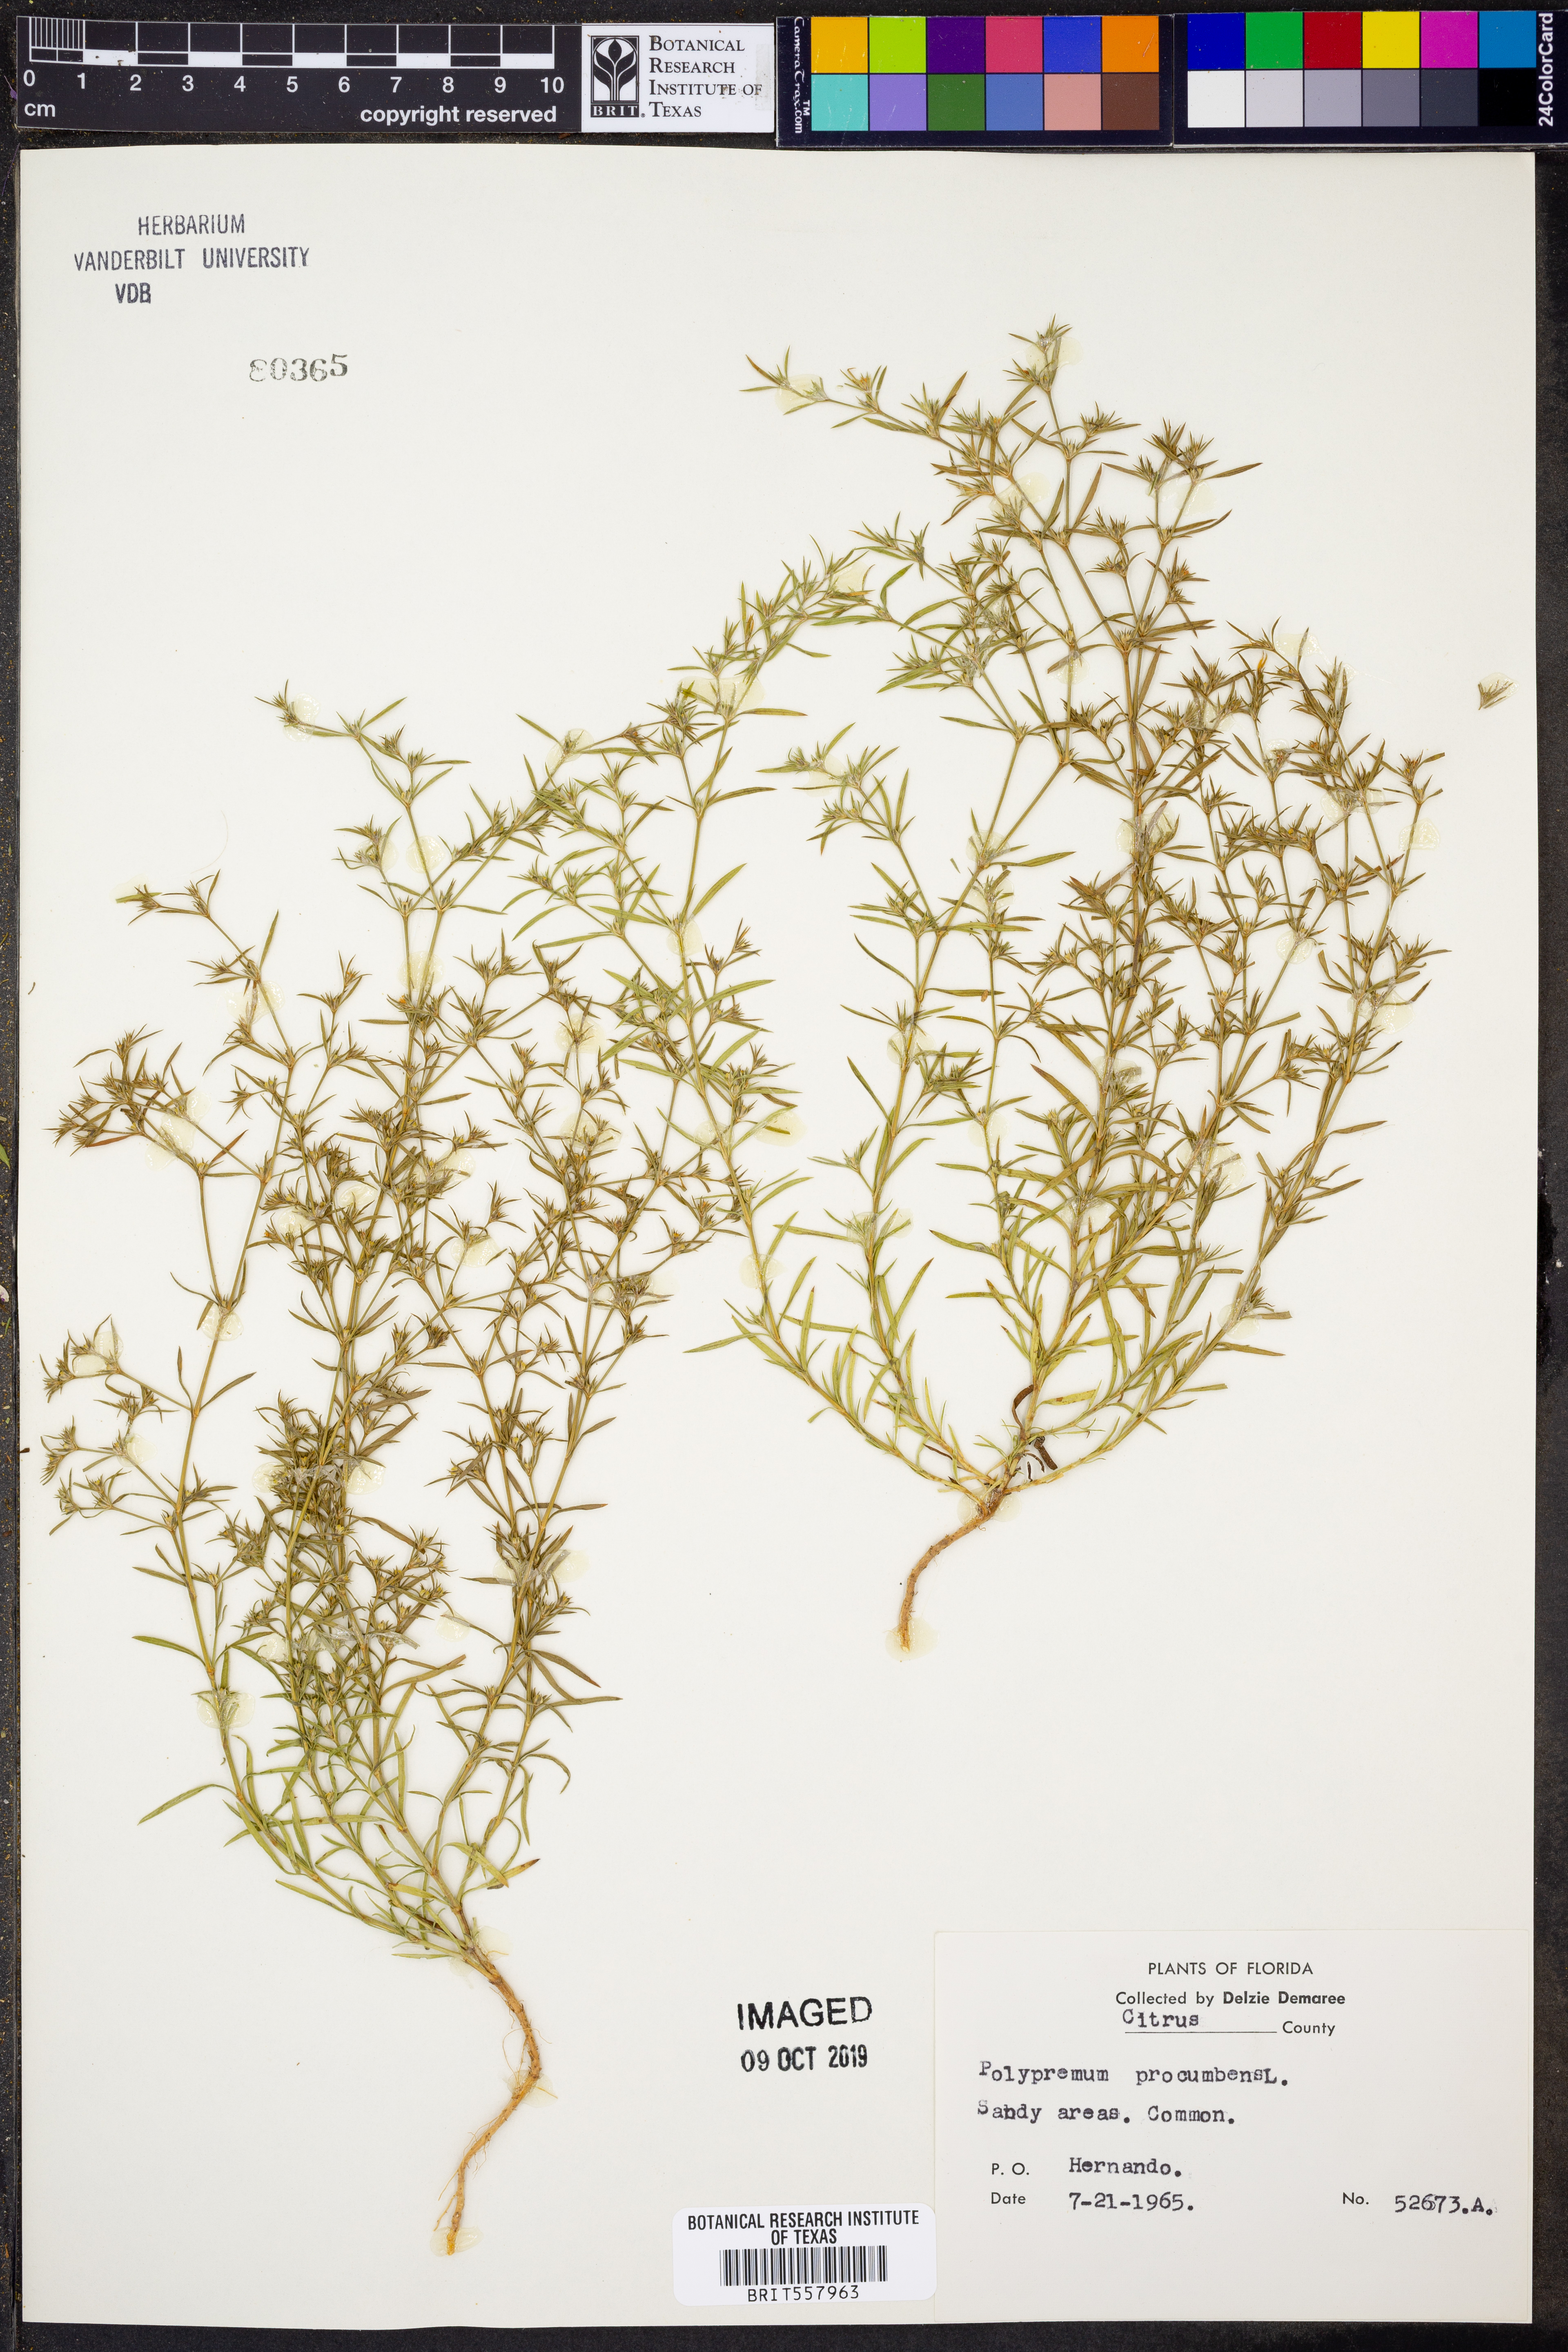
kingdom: Plantae
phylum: Tracheophyta
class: Magnoliopsida
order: Lamiales
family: Tetrachondraceae
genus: Polypremum
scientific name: Polypremum procumbens
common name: Juniper-leaf
